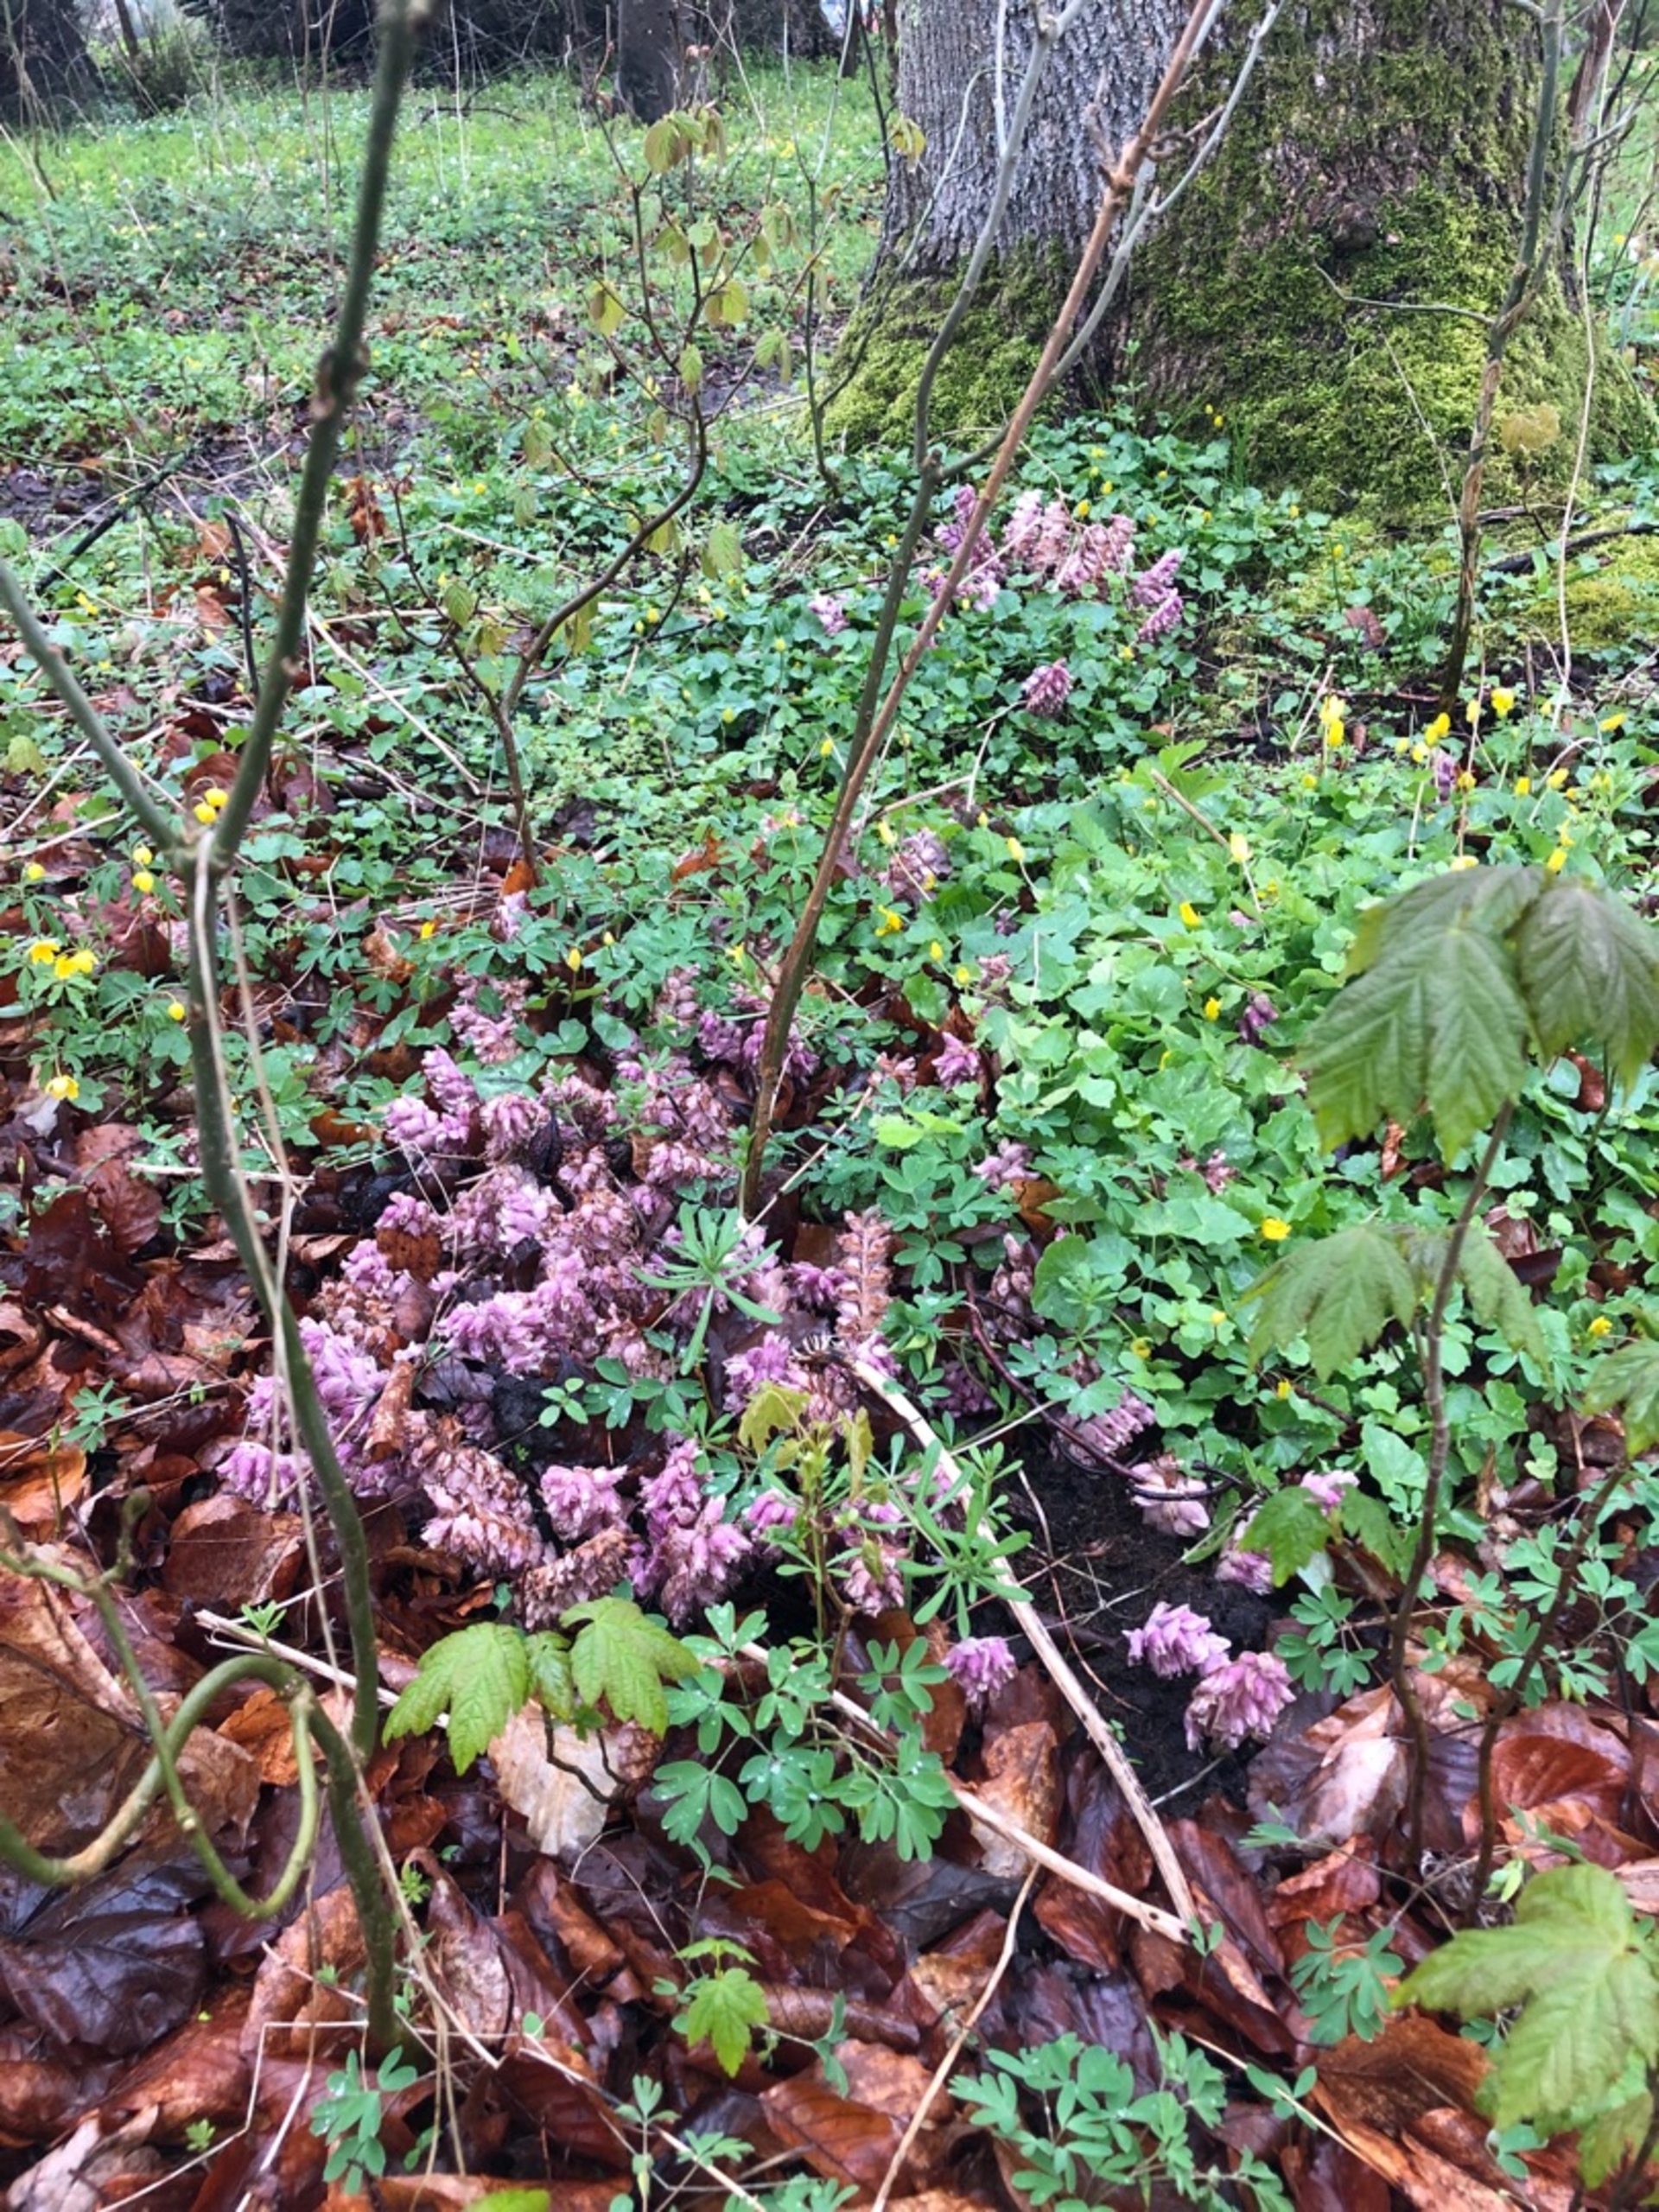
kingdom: Plantae
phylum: Tracheophyta
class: Magnoliopsida
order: Lamiales
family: Orobanchaceae
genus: Lathraea
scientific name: Lathraea squamaria
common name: Skælrod
